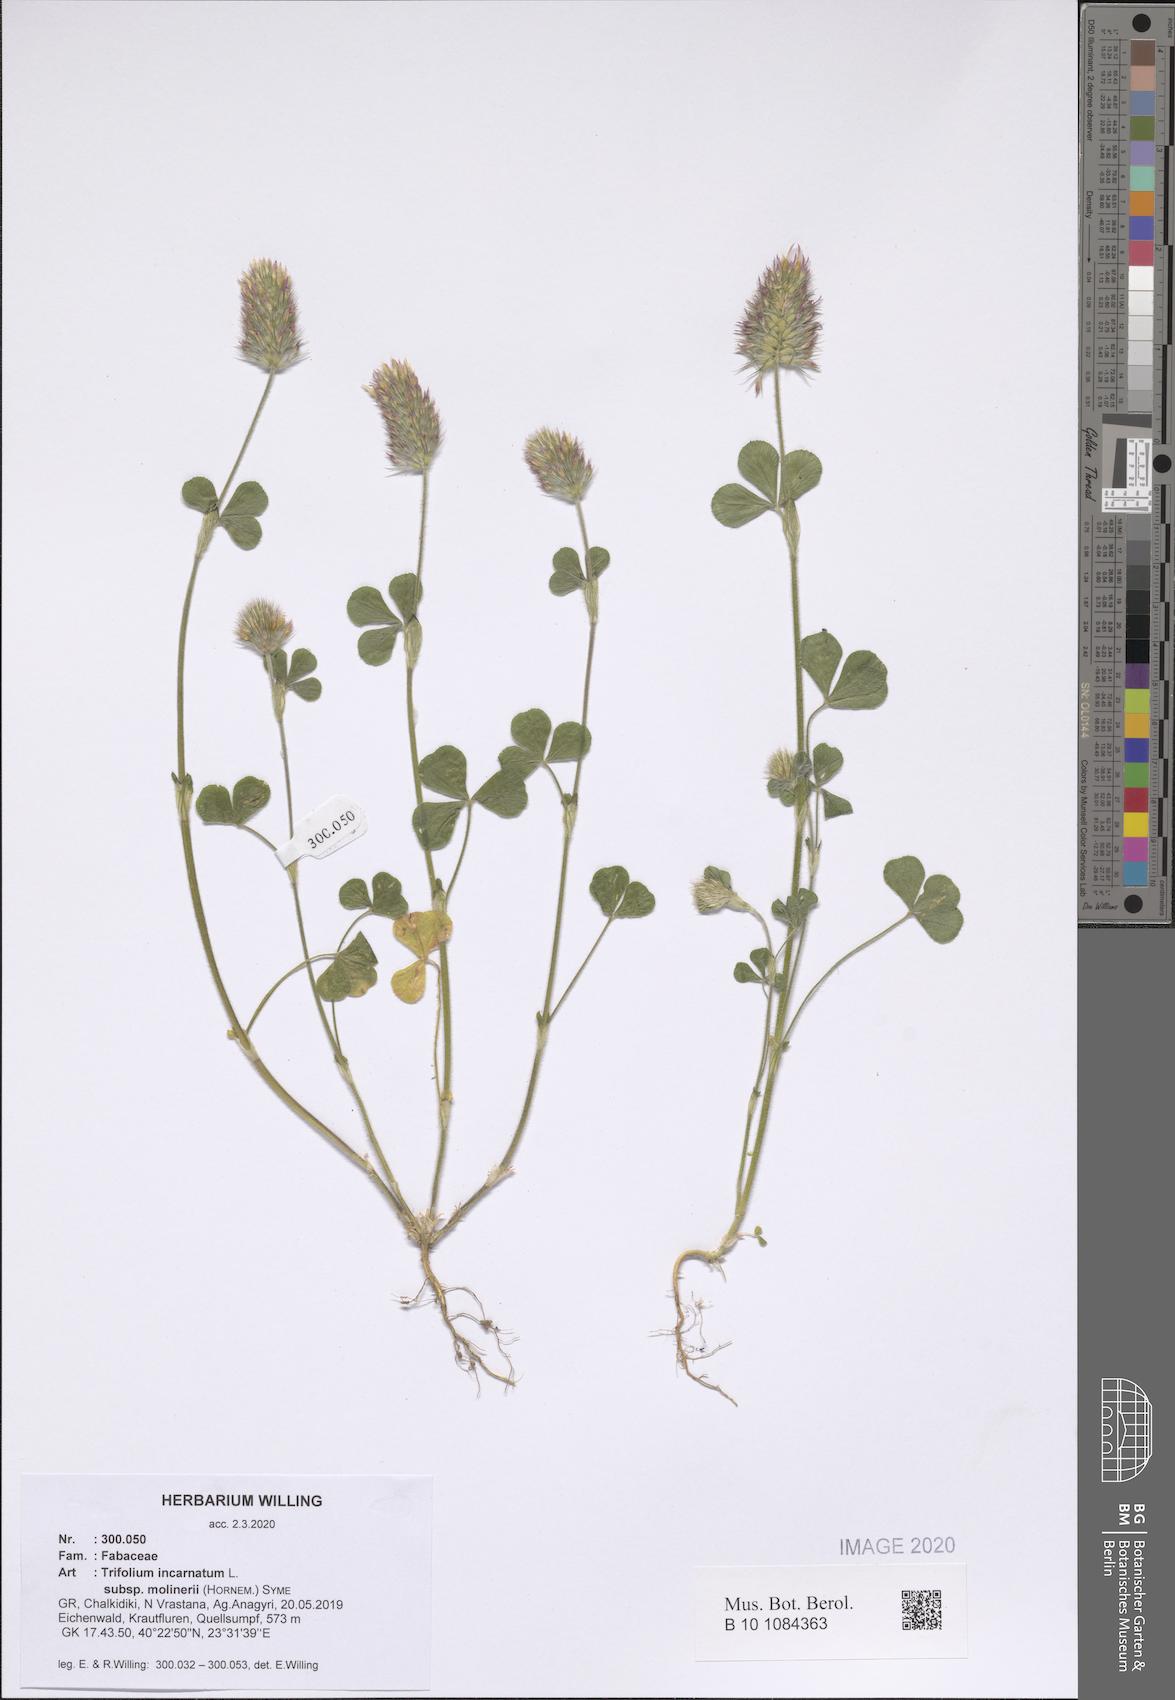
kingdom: Plantae
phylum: Tracheophyta
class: Magnoliopsida
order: Fabales
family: Fabaceae
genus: Trifolium
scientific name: Trifolium incarnatum
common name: Crimson clover
